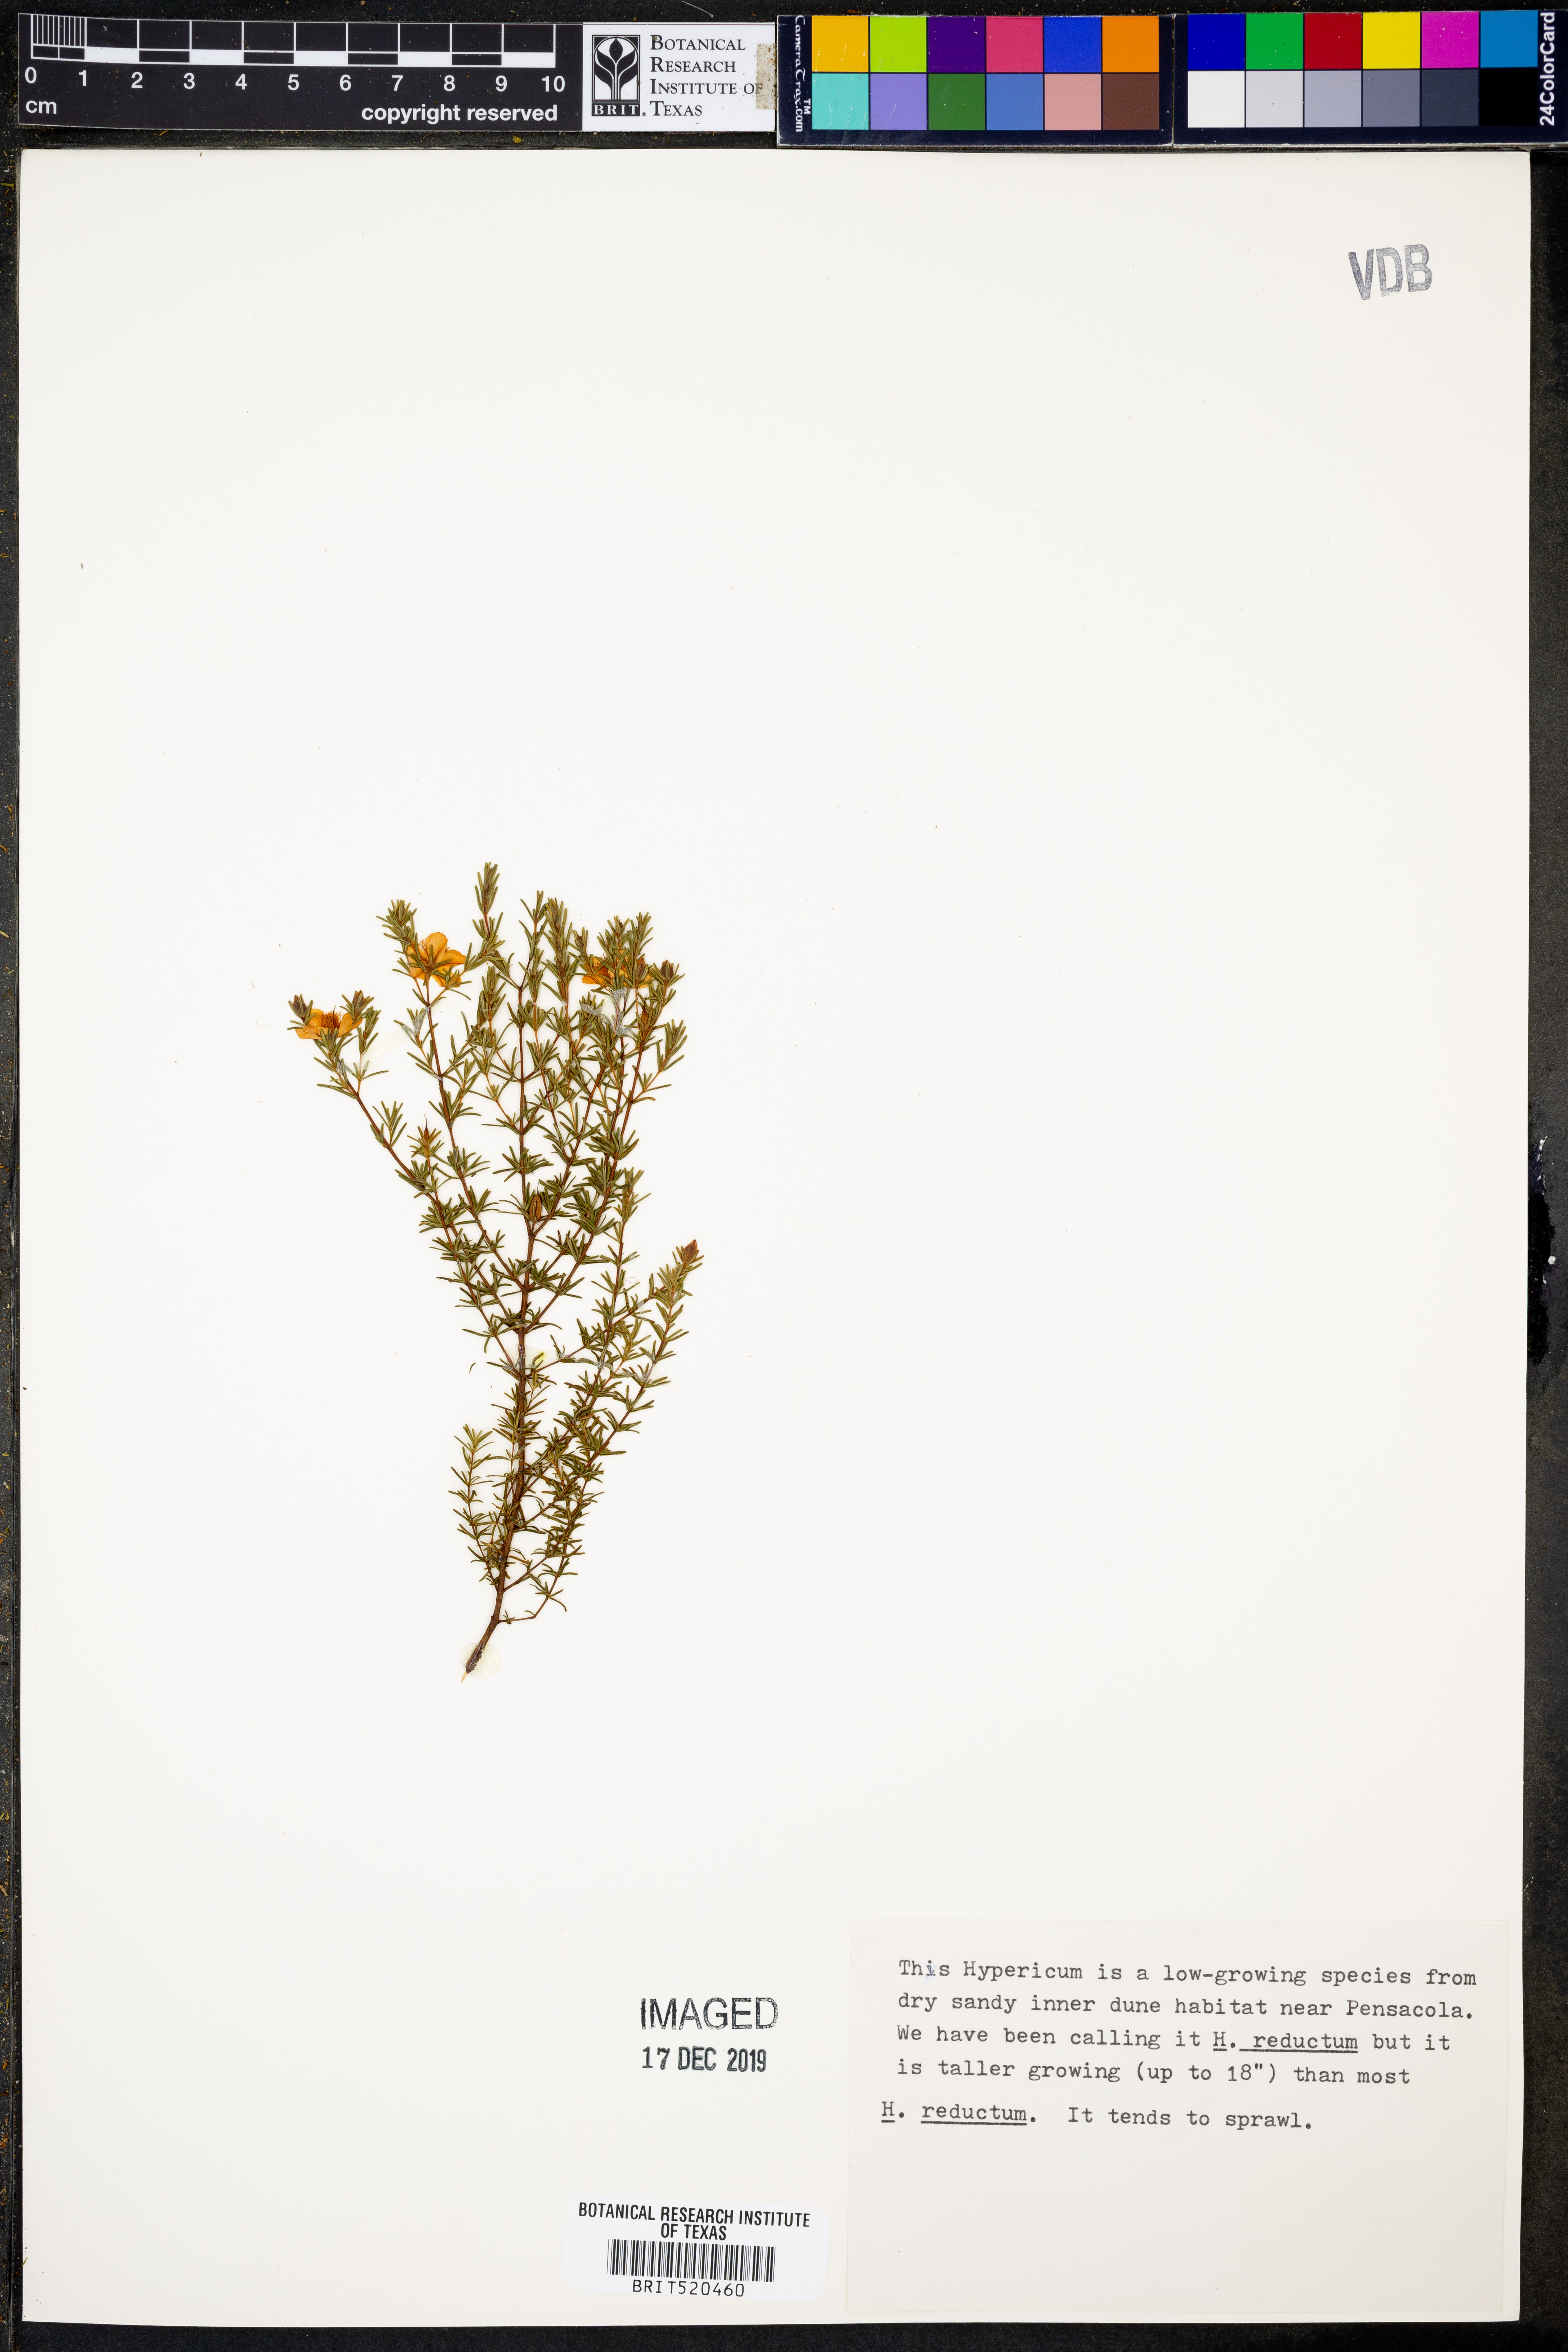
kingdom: Plantae
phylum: Tracheophyta
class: Magnoliopsida
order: Malpighiales
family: Hypericaceae
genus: Hypericum
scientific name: Hypericum tenuifolium
